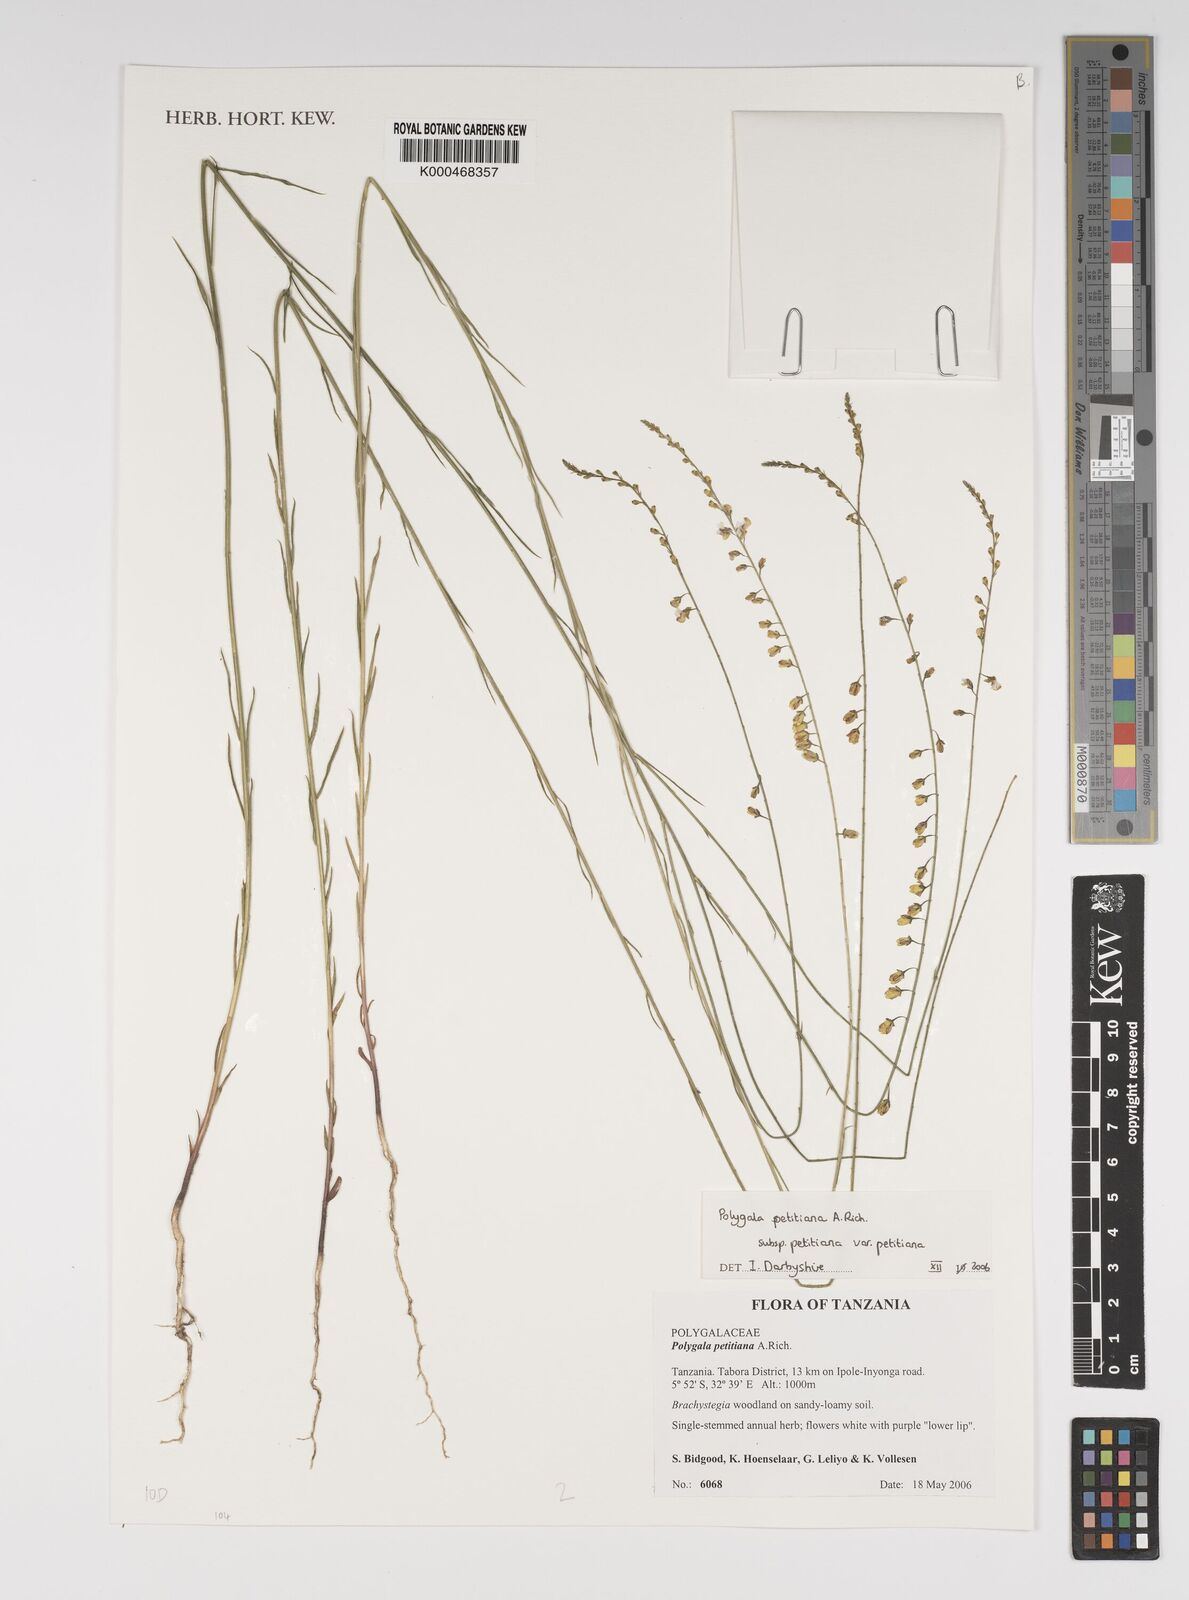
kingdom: Plantae
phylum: Tracheophyta
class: Magnoliopsida
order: Fabales
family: Polygalaceae
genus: Polygala
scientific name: Polygala petitiana
